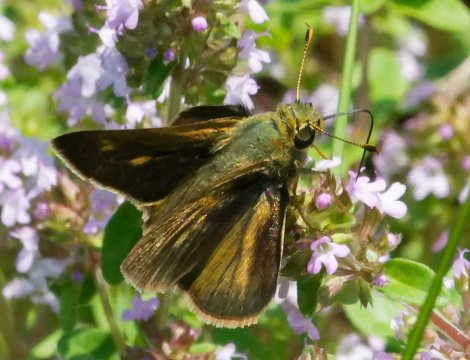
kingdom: Animalia
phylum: Arthropoda
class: Insecta
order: Lepidoptera
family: Hesperiidae
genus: Polites
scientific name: Polites
